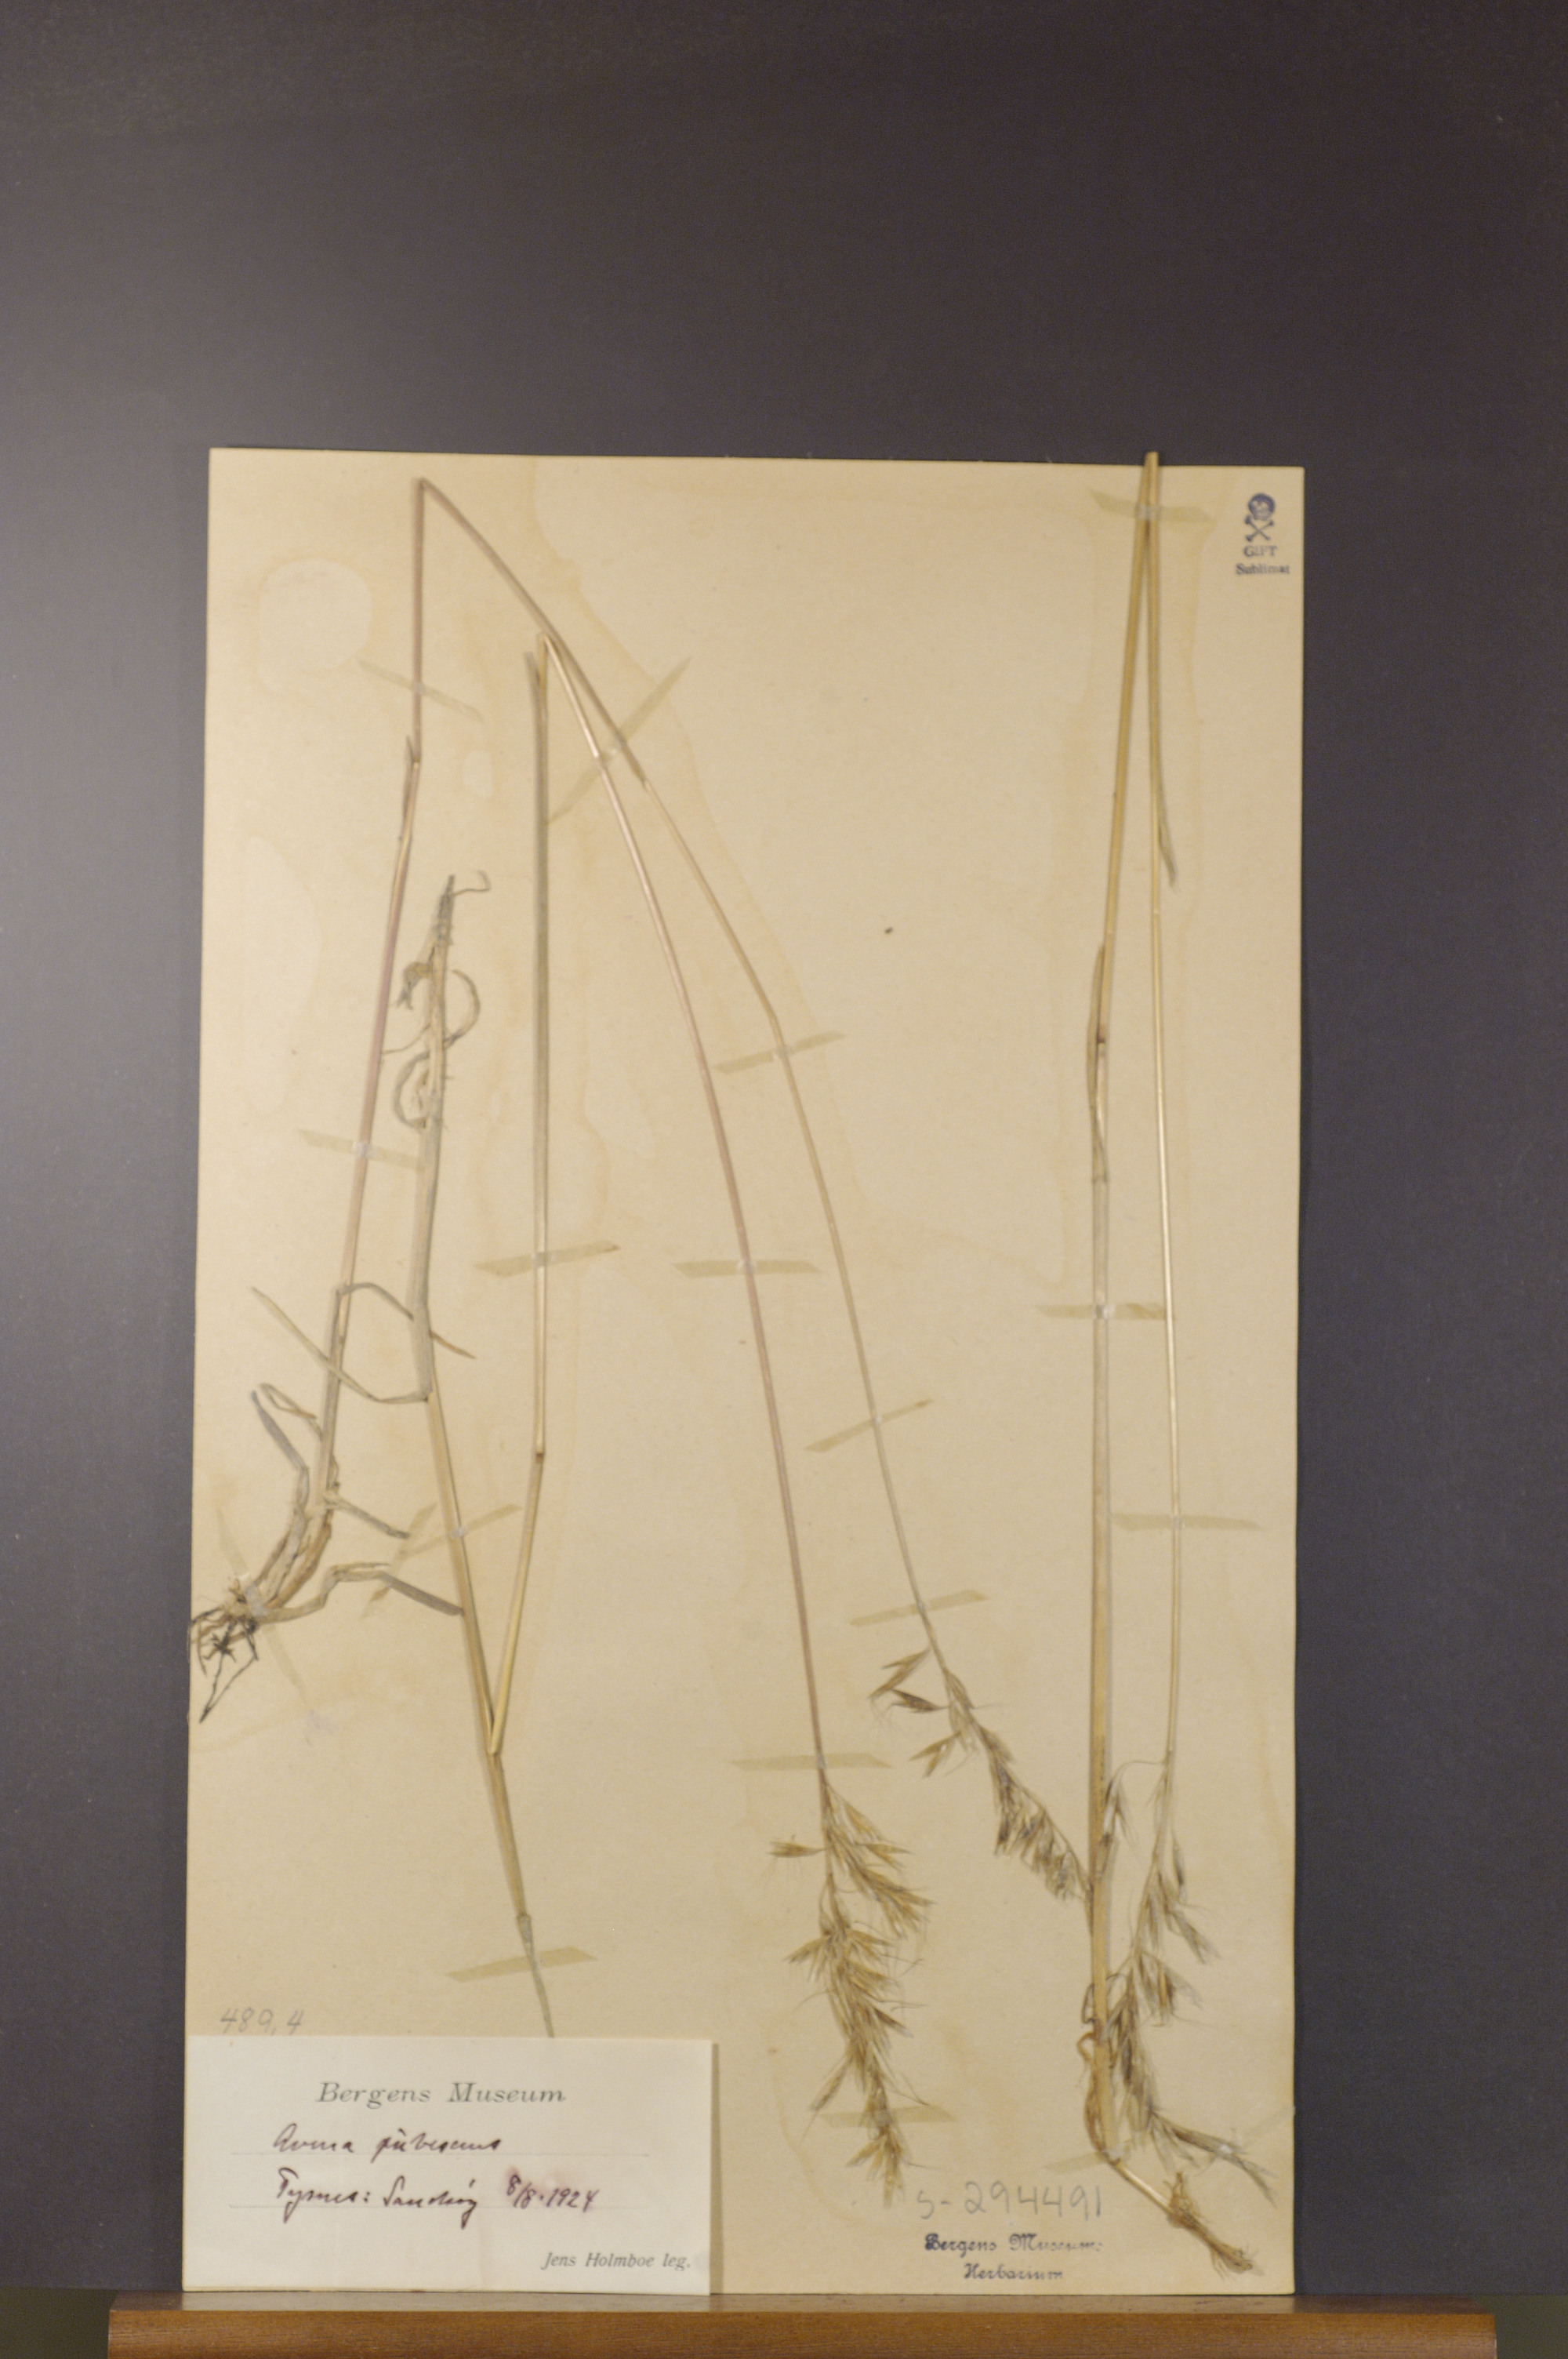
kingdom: Plantae
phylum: Tracheophyta
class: Liliopsida
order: Poales
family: Poaceae
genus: Avenula
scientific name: Avenula pubescens
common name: Downy alpine oatgrass
